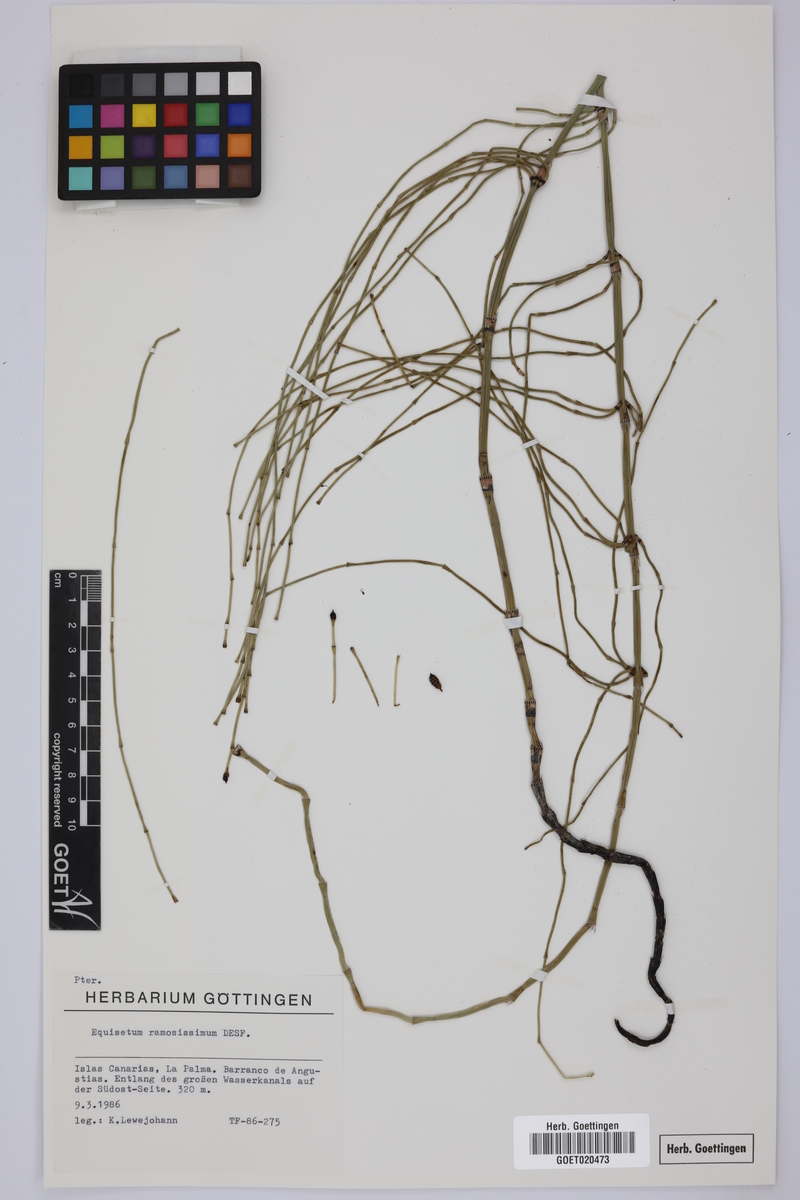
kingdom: Plantae
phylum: Tracheophyta
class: Polypodiopsida
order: Equisetales
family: Equisetaceae
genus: Equisetum
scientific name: Equisetum ramosissimum
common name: Branched horsetail
